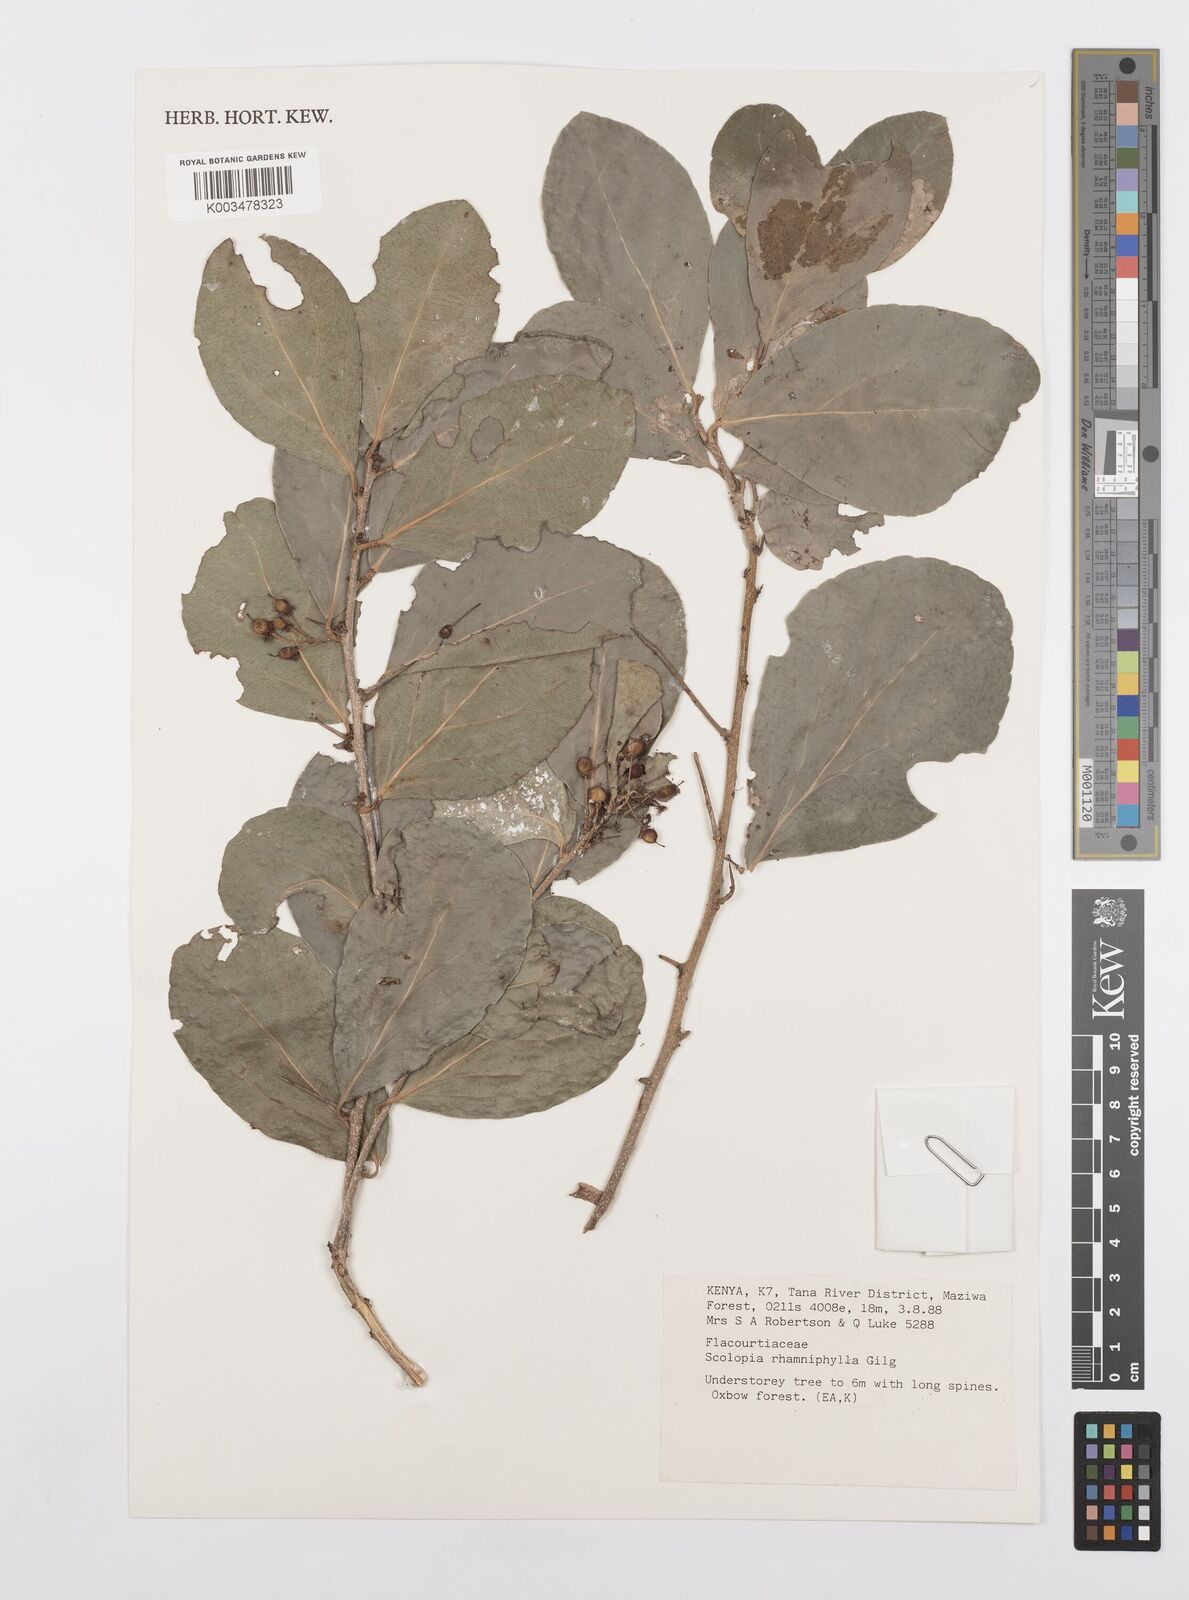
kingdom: Plantae
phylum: Tracheophyta
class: Magnoliopsida
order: Malpighiales
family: Salicaceae
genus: Scolopia
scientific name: Scolopia rhamniphylla
